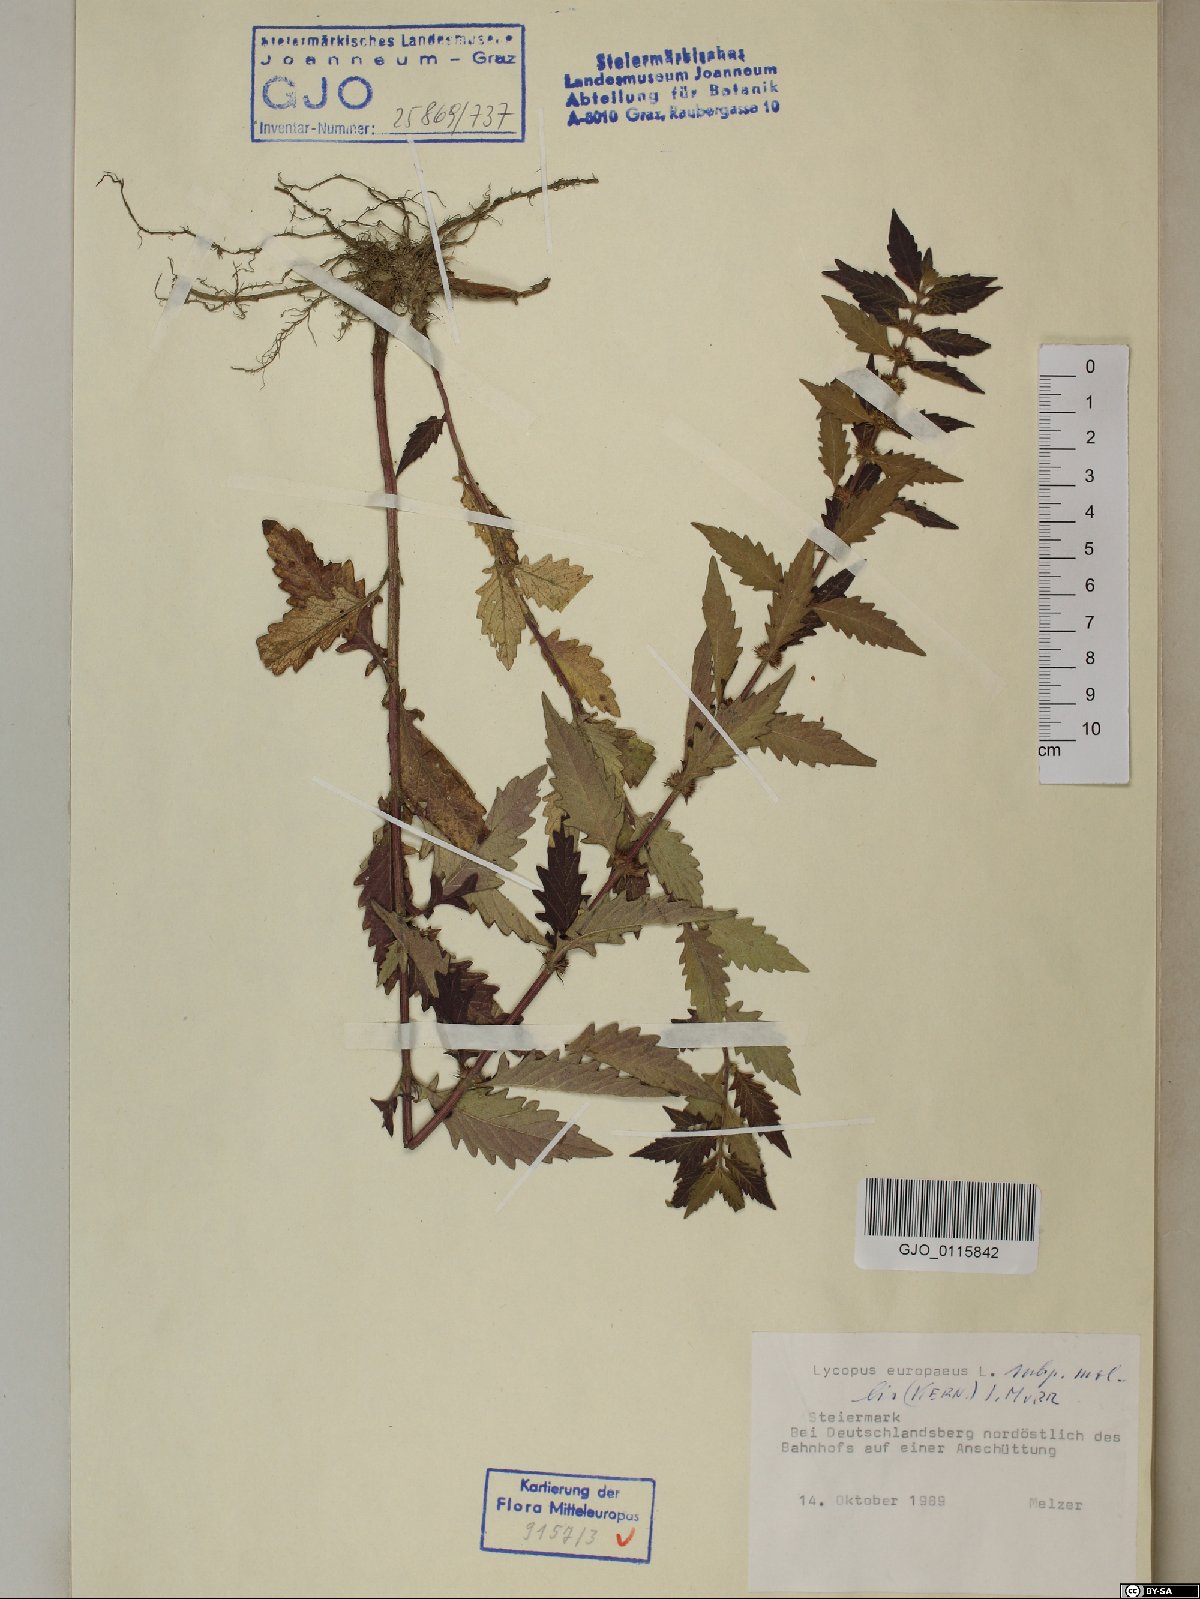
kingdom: Plantae
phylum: Tracheophyta
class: Magnoliopsida
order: Lamiales
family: Lamiaceae
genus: Lycopus
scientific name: Lycopus europaeus
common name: European bugleweed
